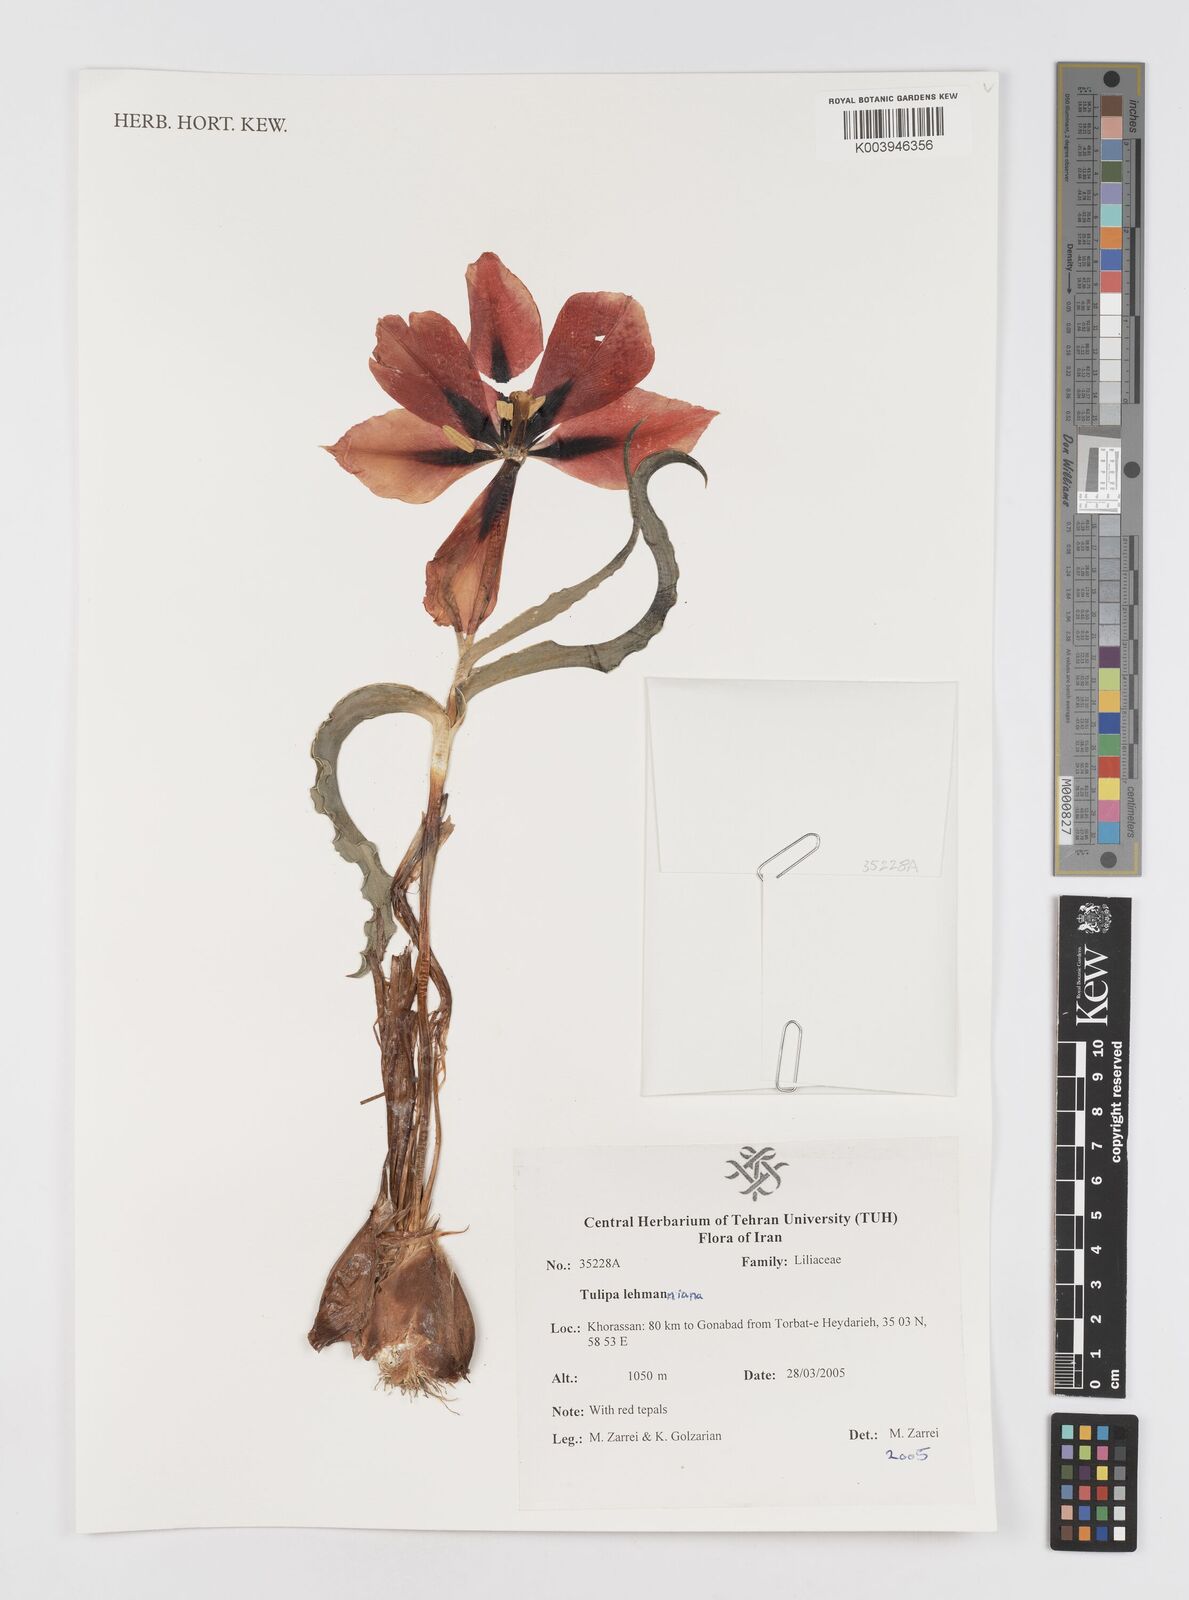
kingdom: Plantae
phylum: Tracheophyta
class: Liliopsida
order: Liliales
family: Liliaceae
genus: Tulipa
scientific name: Tulipa lehmanniana
